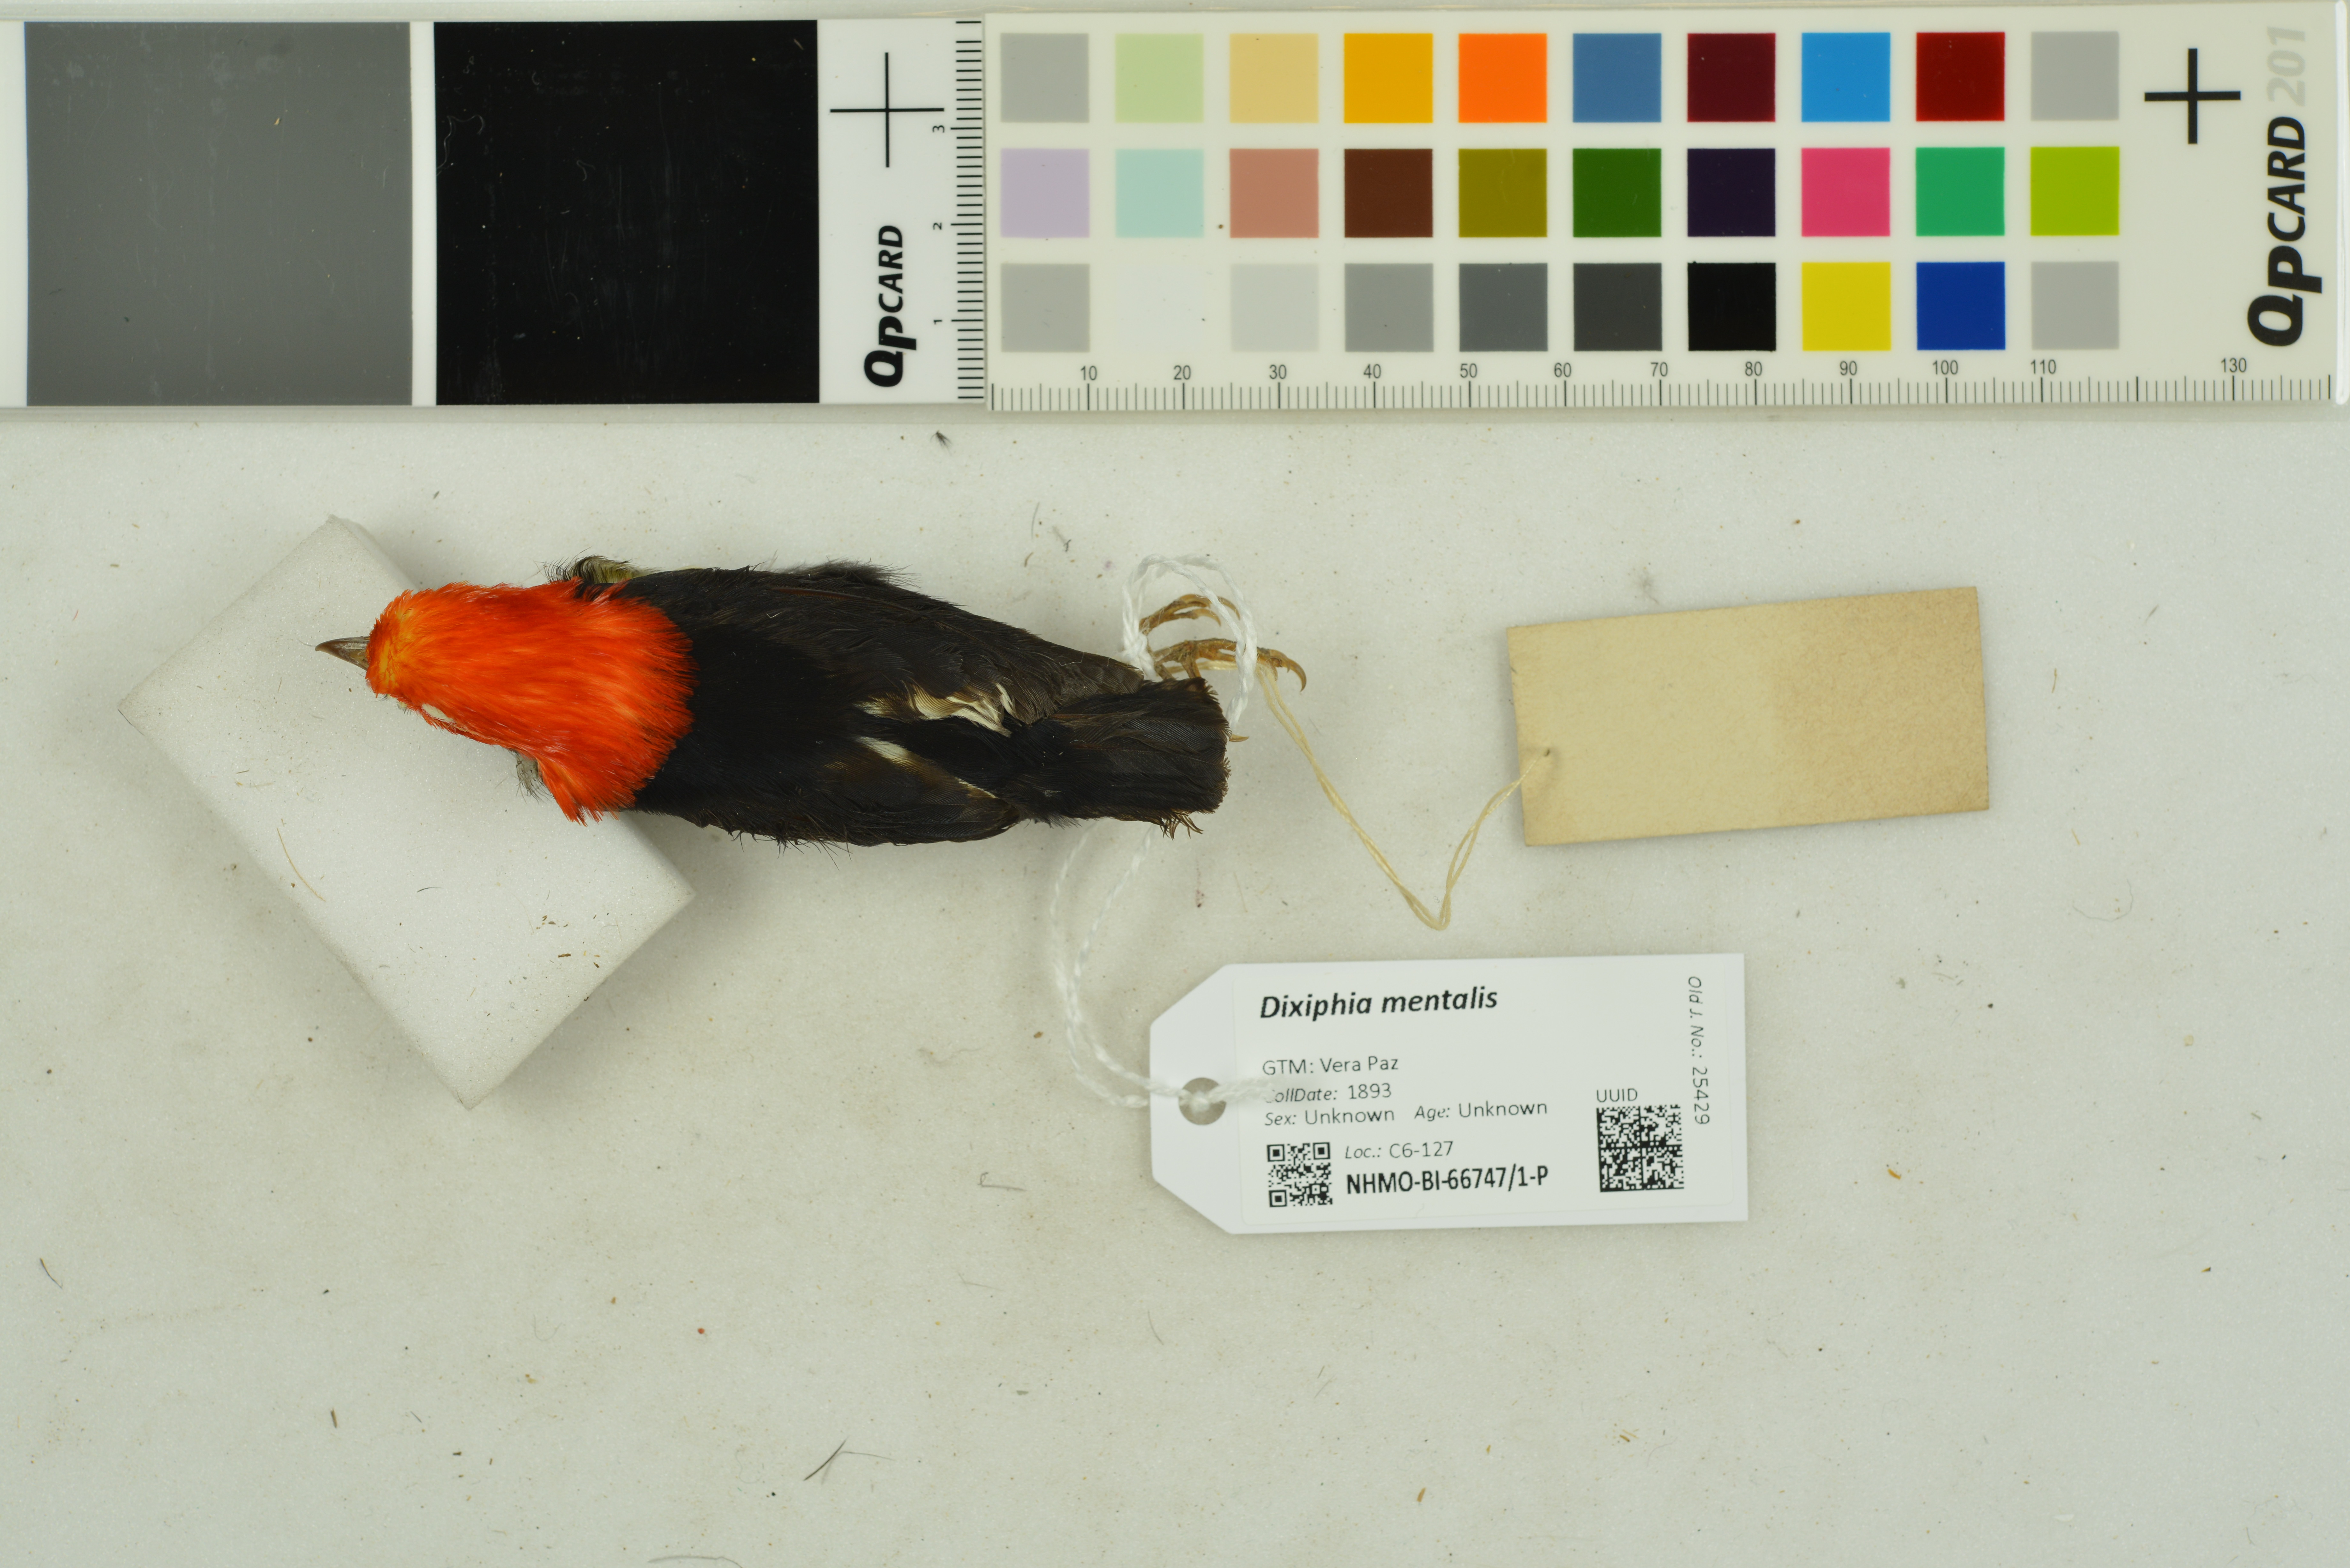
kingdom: Animalia
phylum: Chordata
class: Aves
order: Passeriformes
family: Pipridae
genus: Pipra
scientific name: Pipra mentalis
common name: Red-capped manakin
